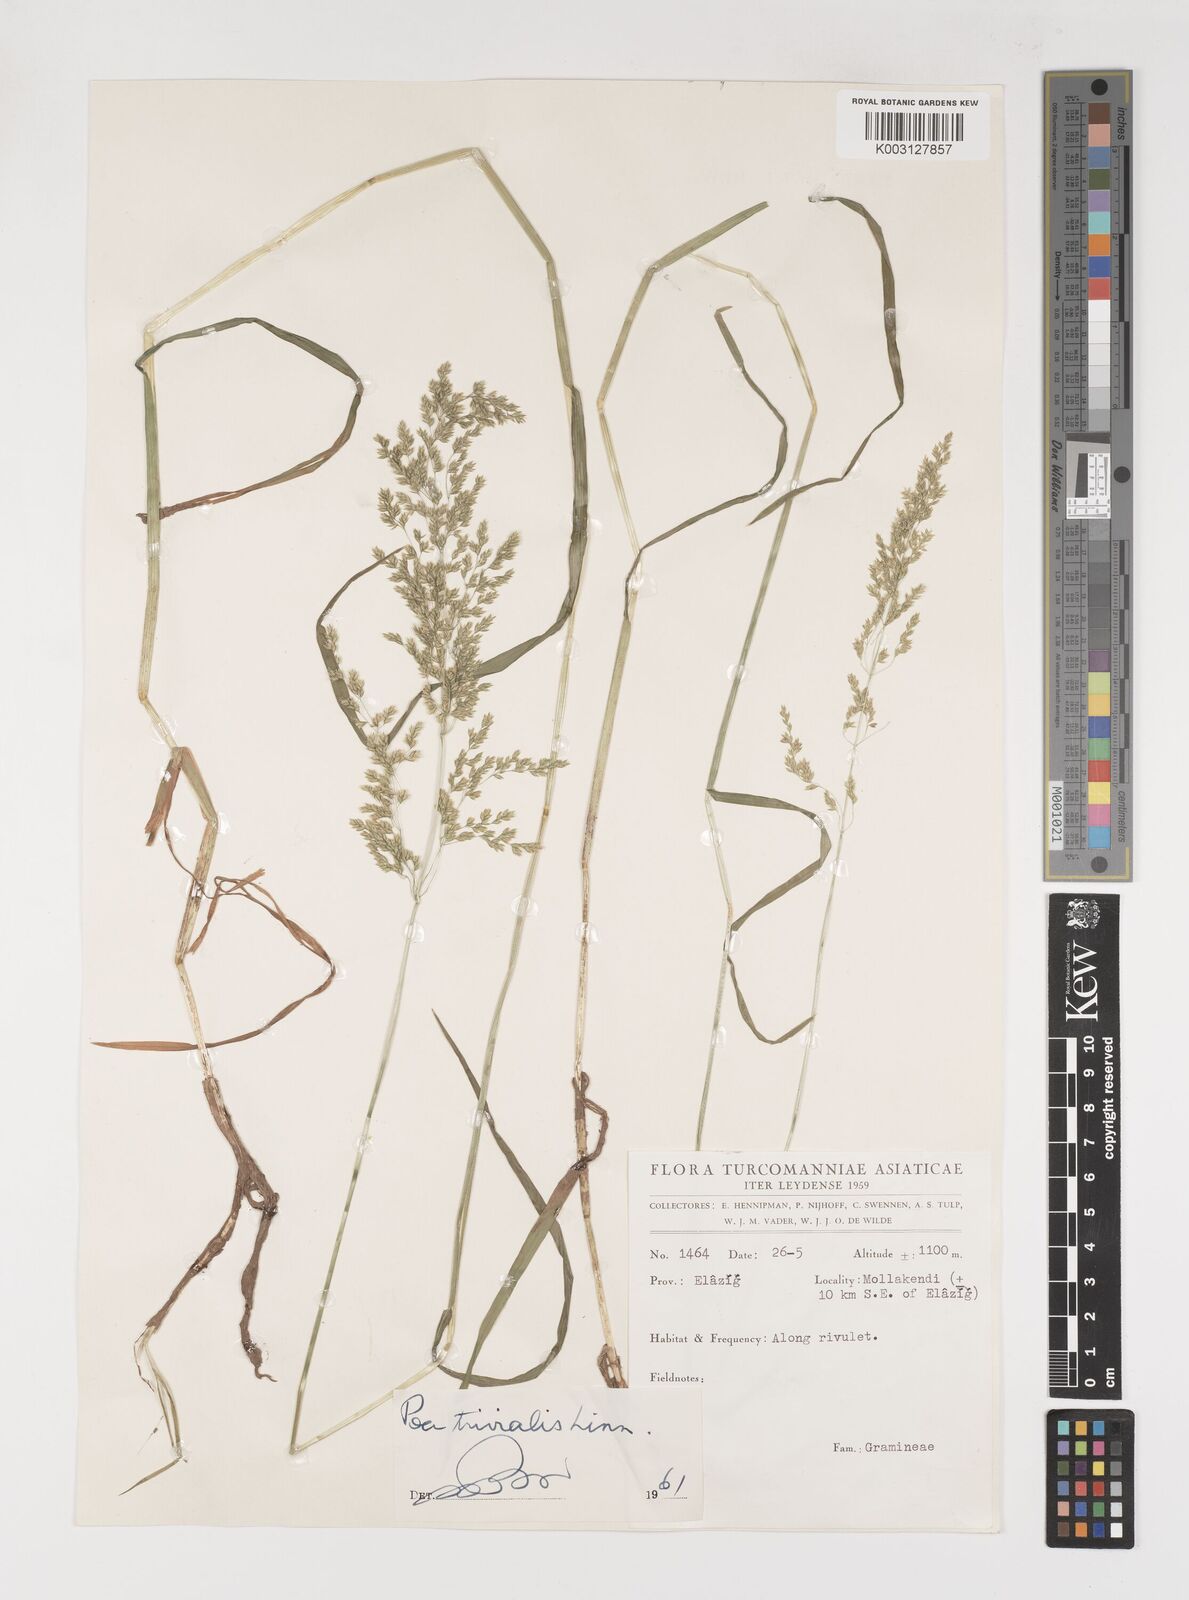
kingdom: Plantae
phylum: Tracheophyta
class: Liliopsida
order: Poales
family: Poaceae
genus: Poa
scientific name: Poa trivialis
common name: Rough bluegrass
